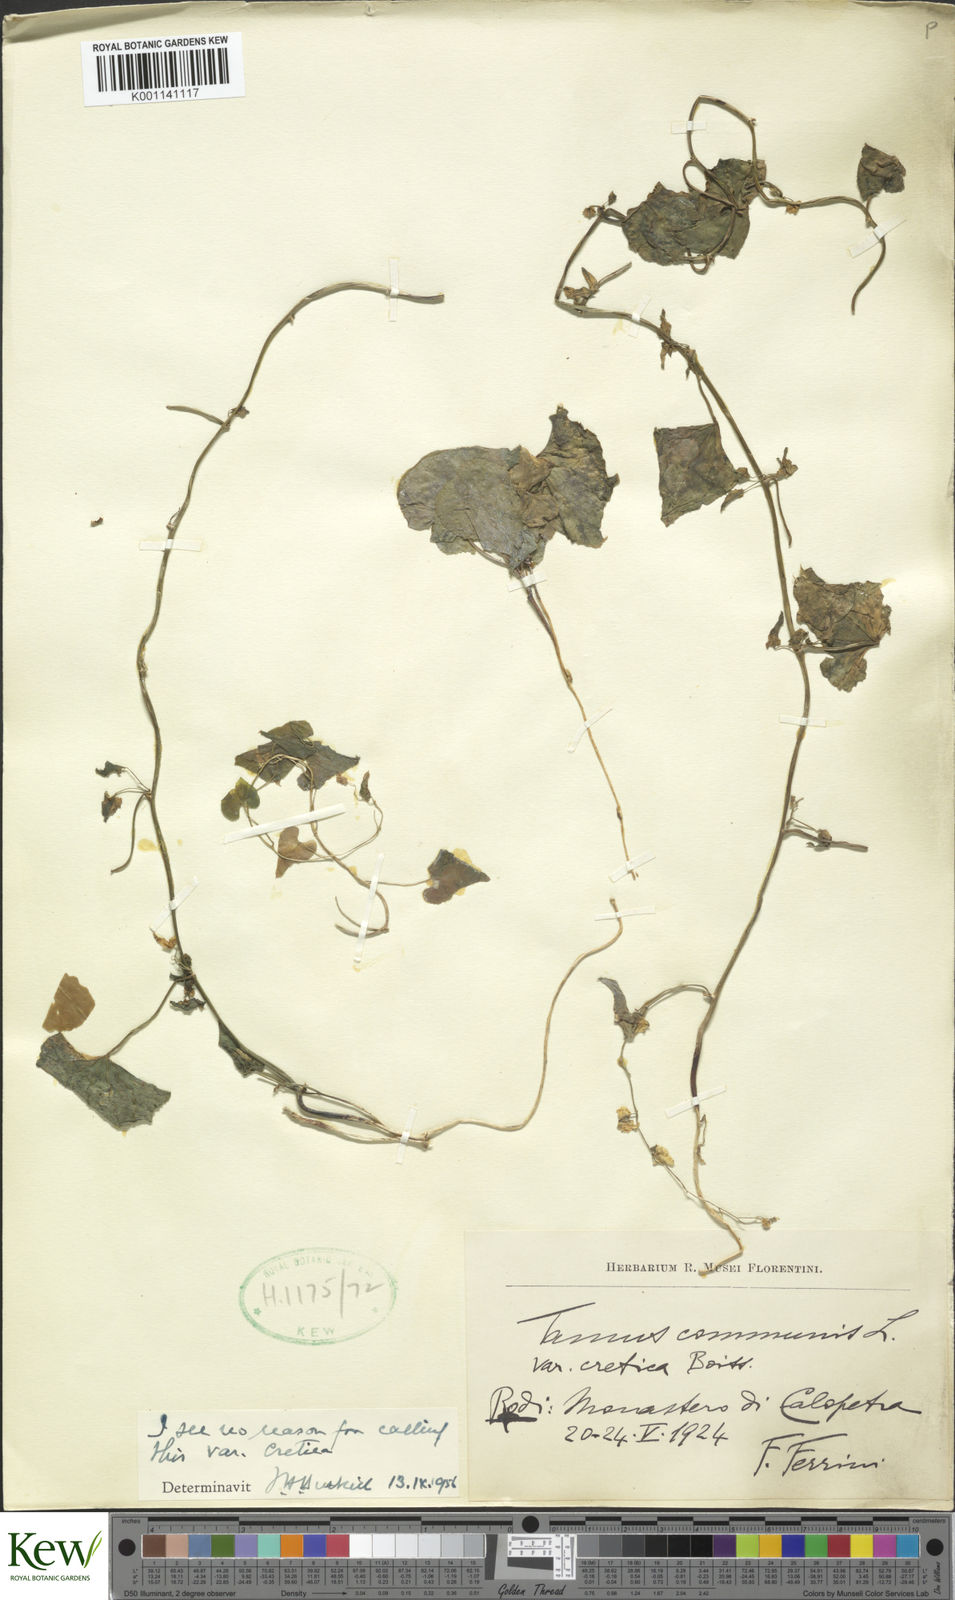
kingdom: Plantae
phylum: Tracheophyta
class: Liliopsida
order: Dioscoreales
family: Dioscoreaceae
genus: Dioscorea
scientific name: Dioscorea communis
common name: Black-bindweed
